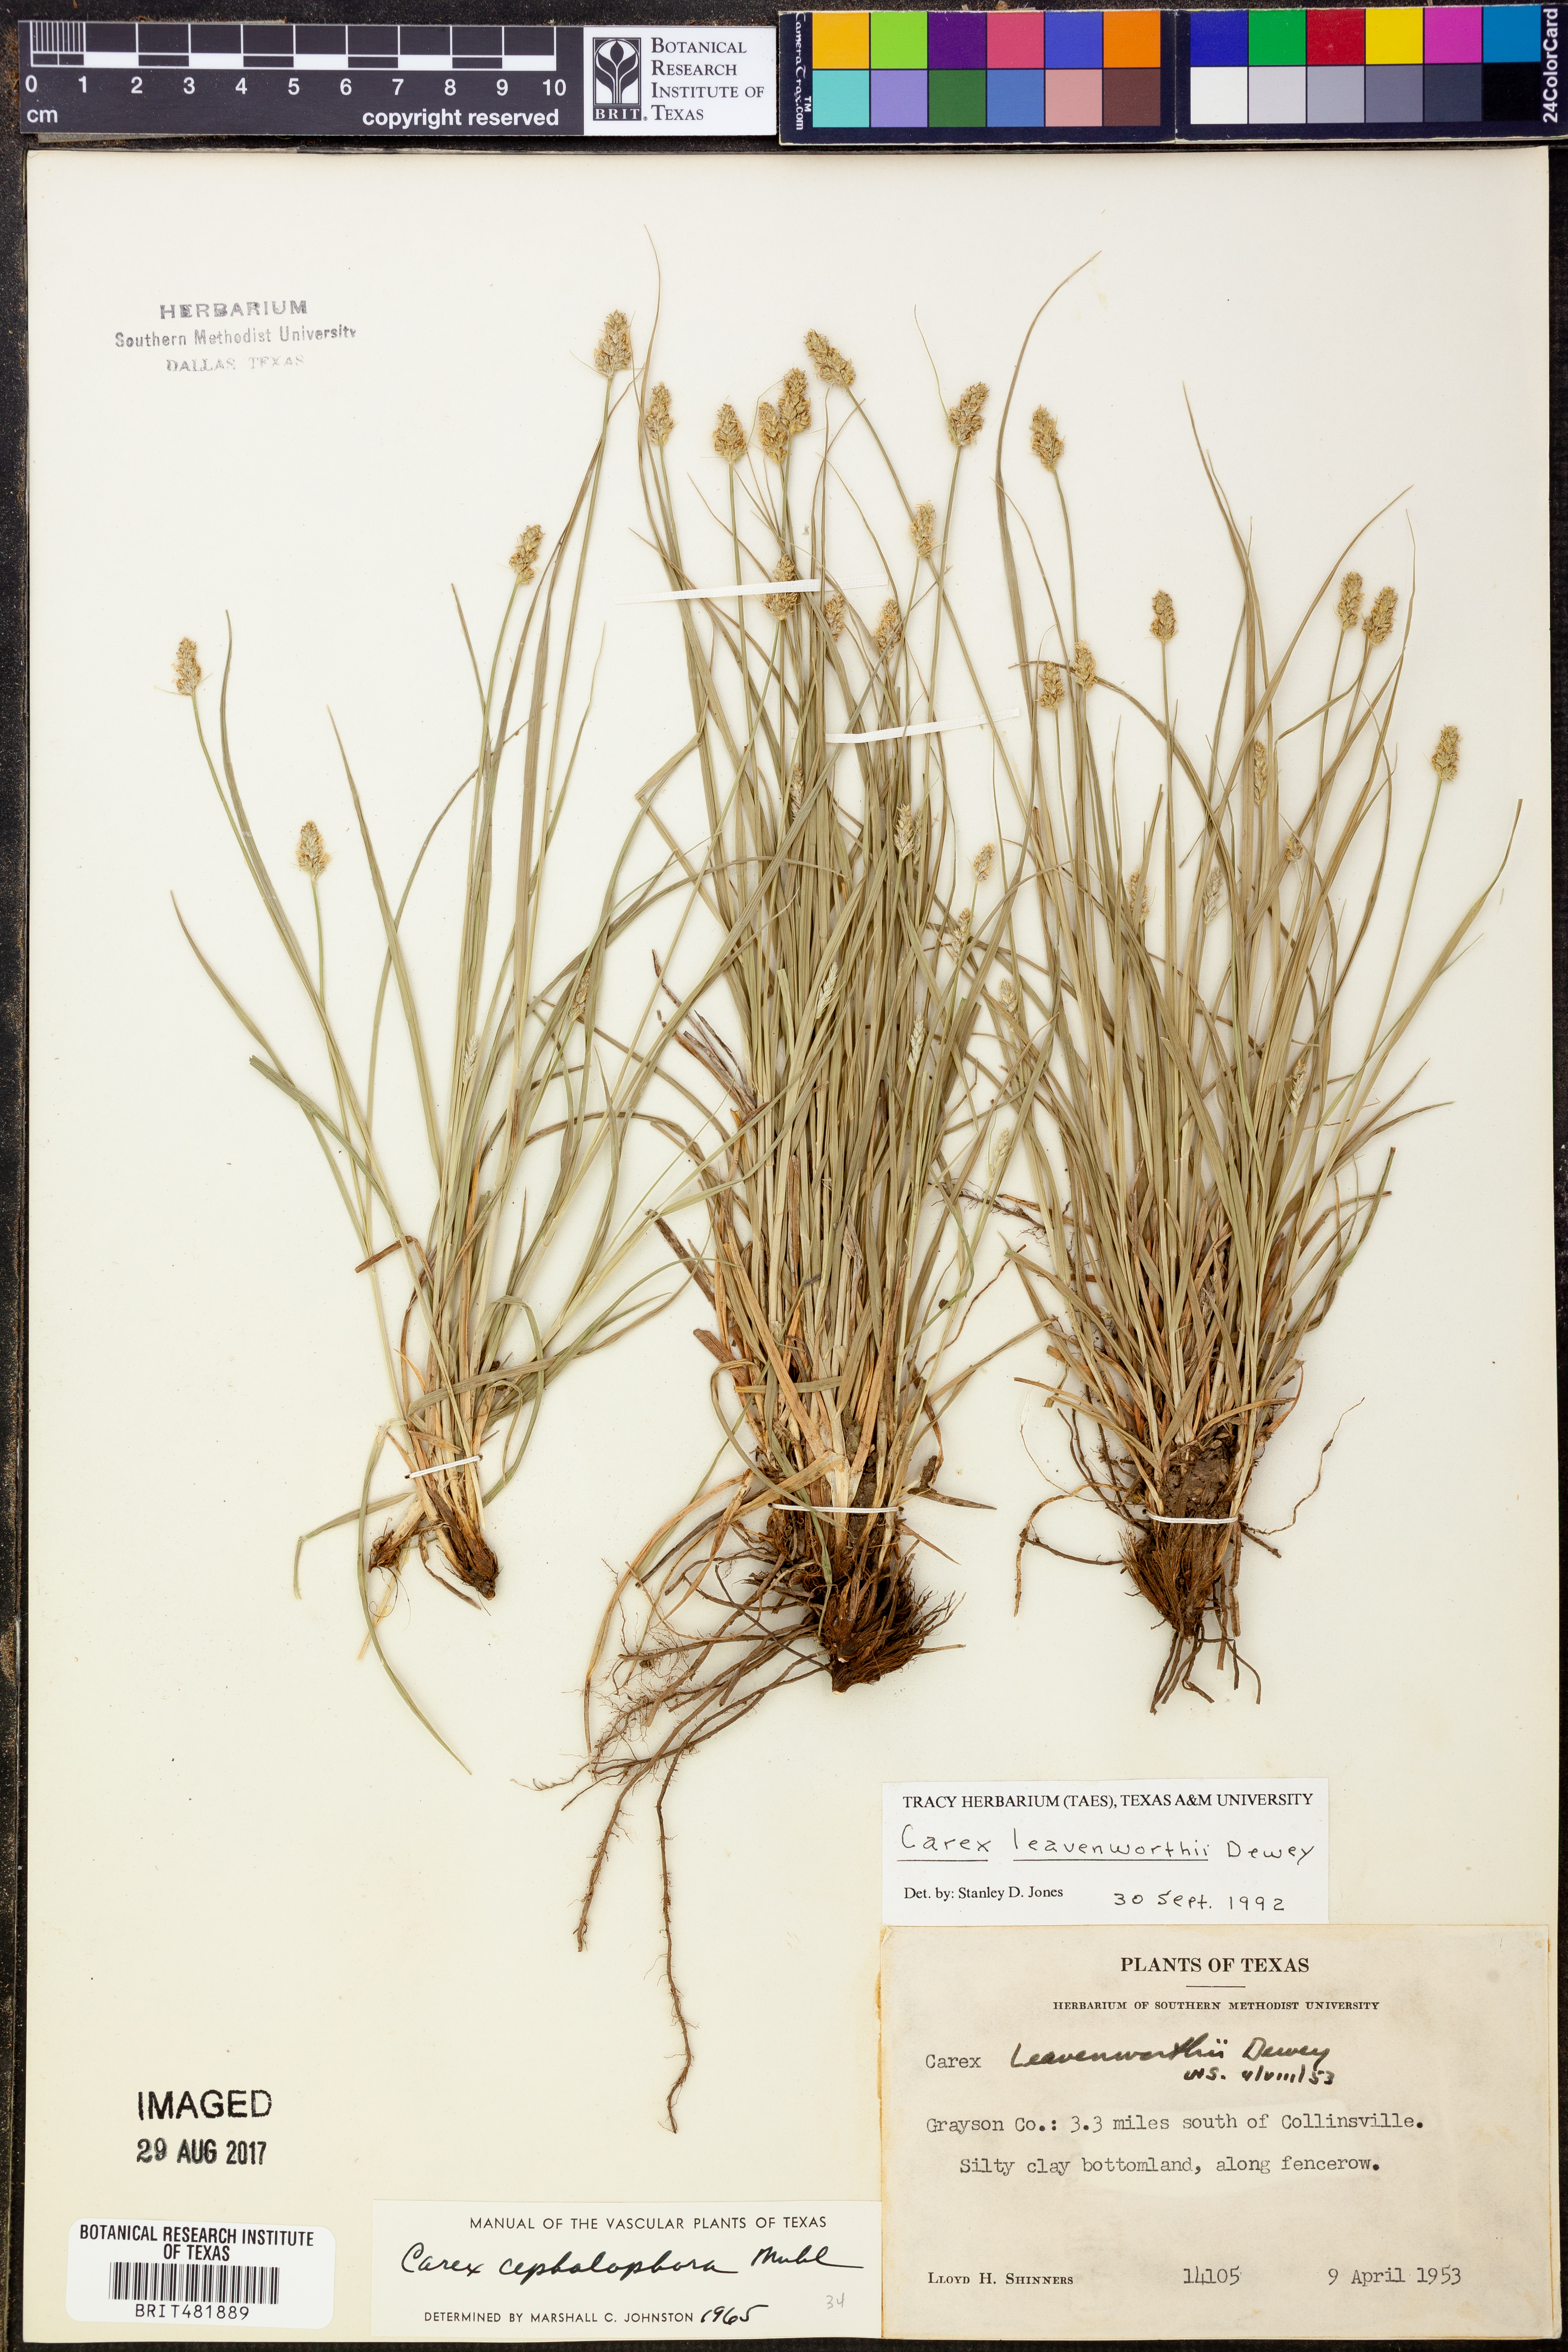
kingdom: Plantae
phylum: Tracheophyta
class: Liliopsida
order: Poales
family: Cyperaceae
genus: Carex
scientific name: Carex leavenworthii
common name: Leavenworth's bracted sedge
